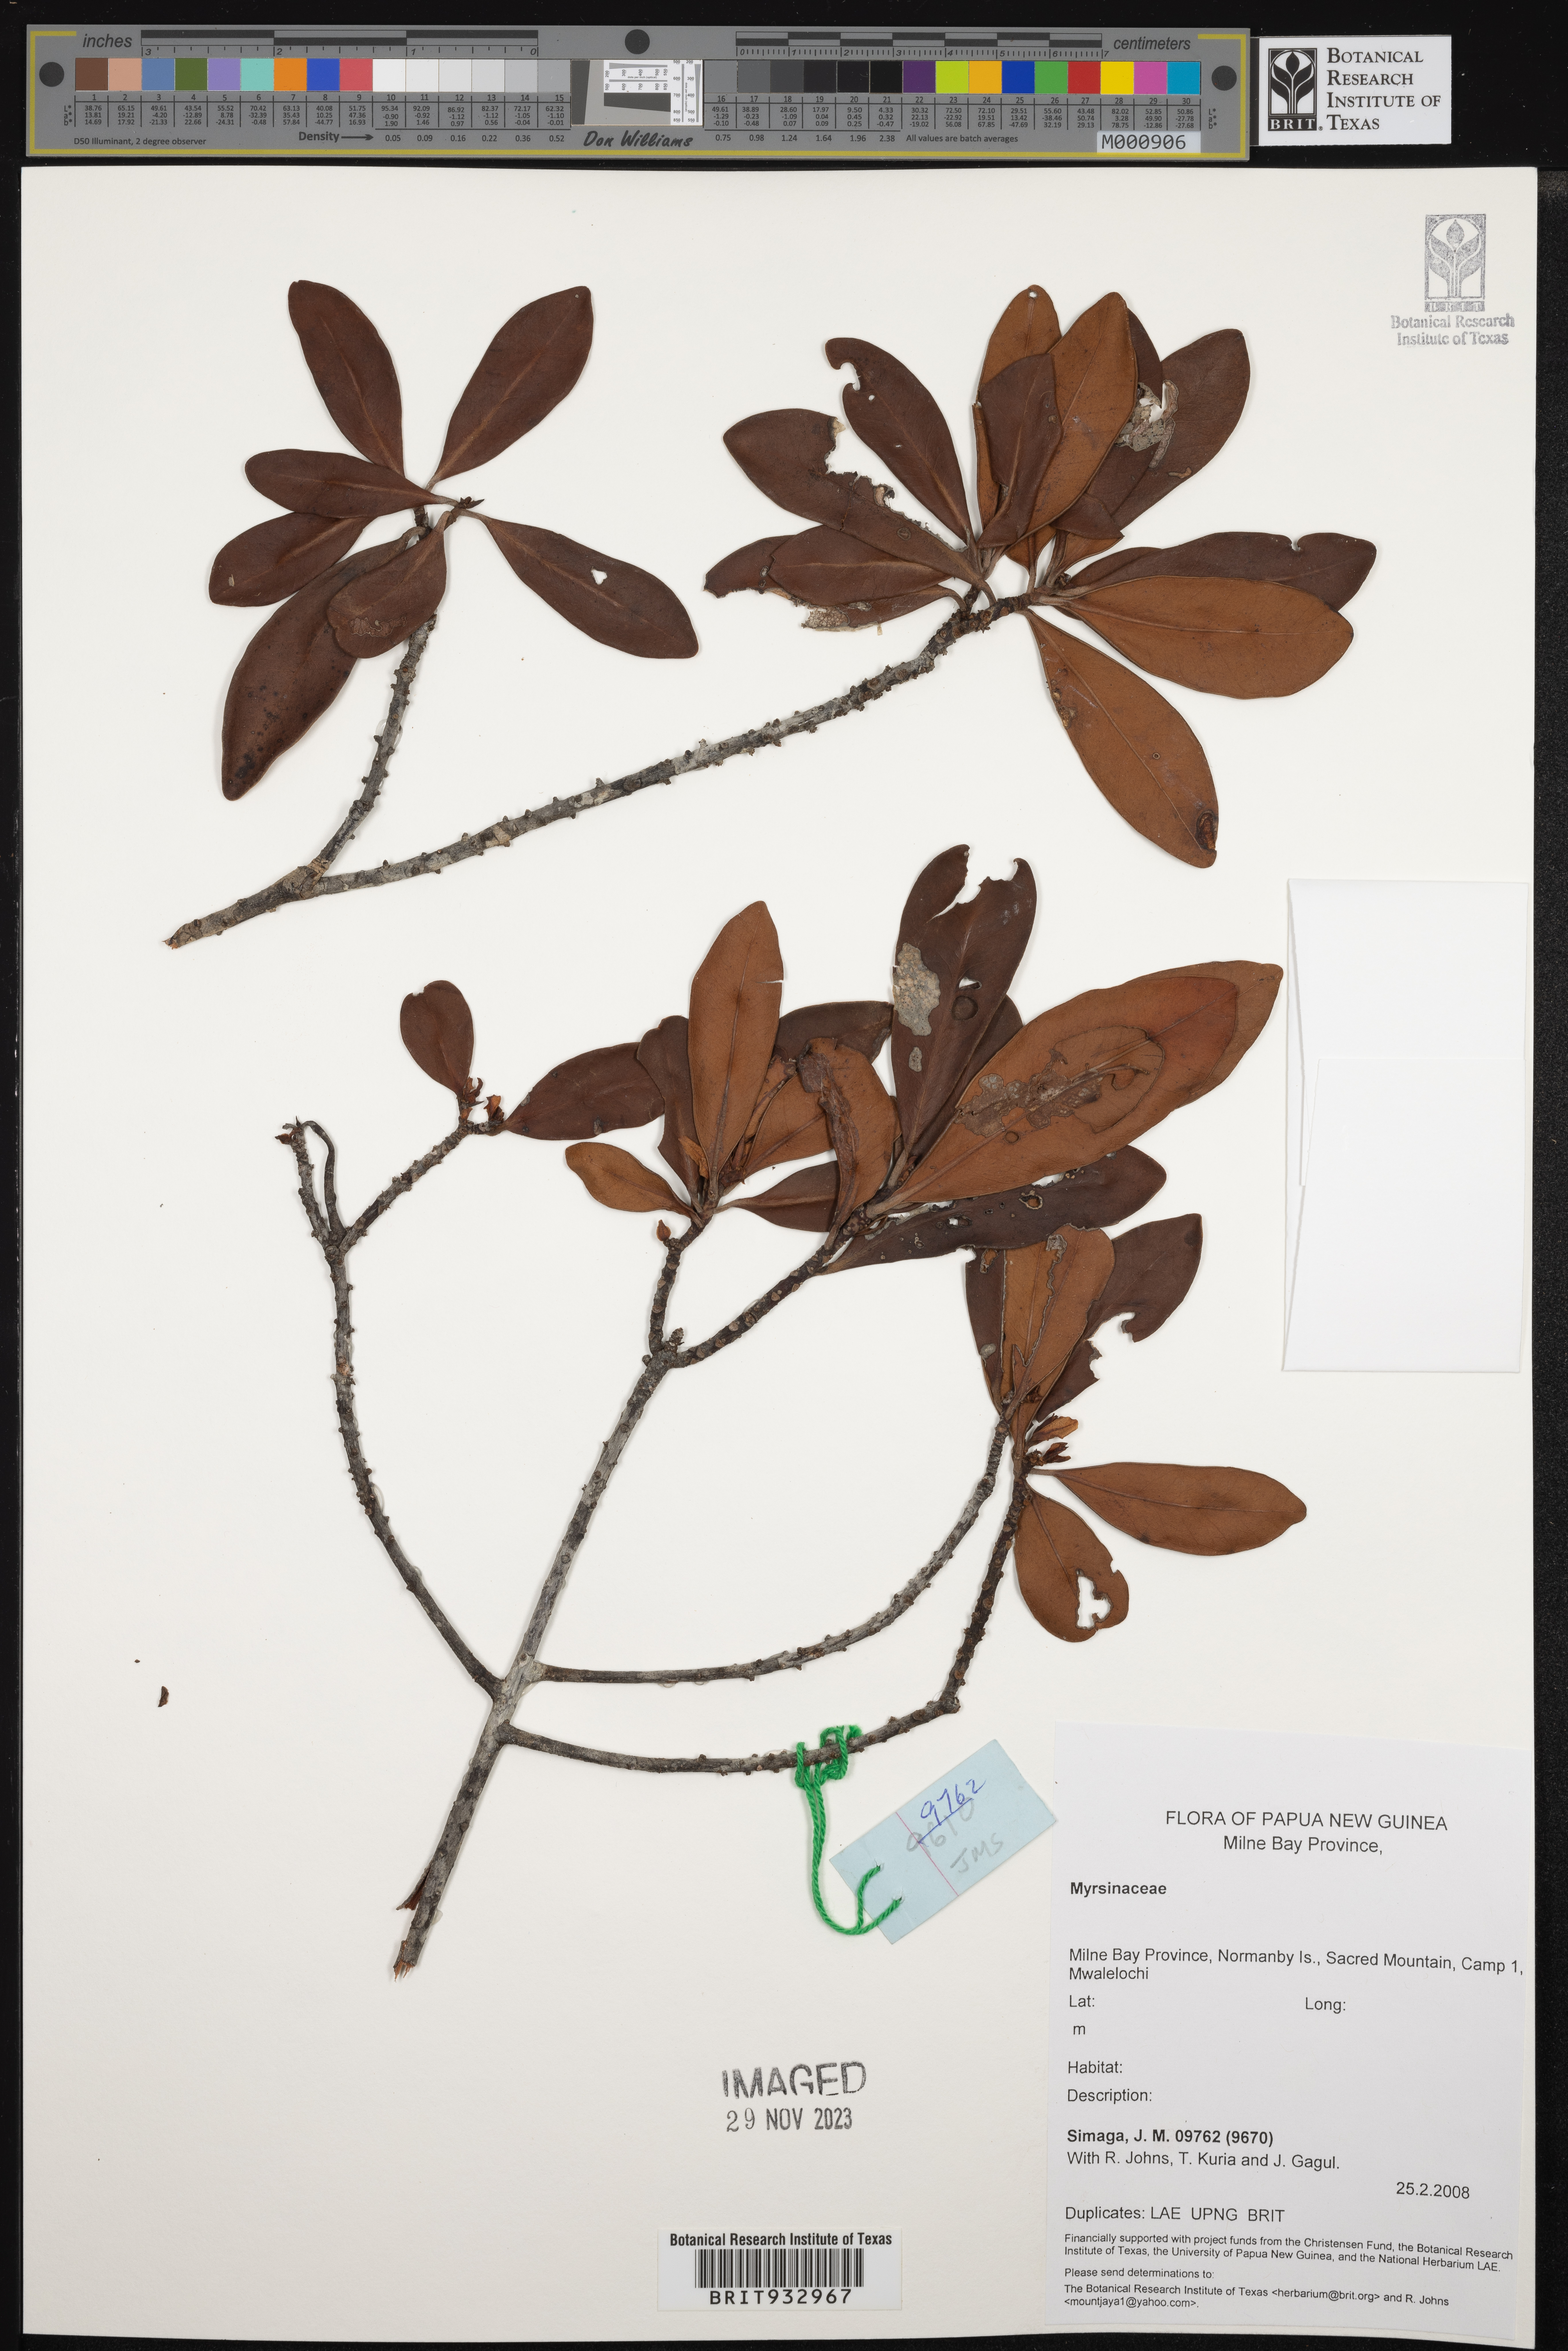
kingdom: Plantae
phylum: Tracheophyta
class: Magnoliopsida
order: Ericales
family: Primulaceae
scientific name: Primulaceae
